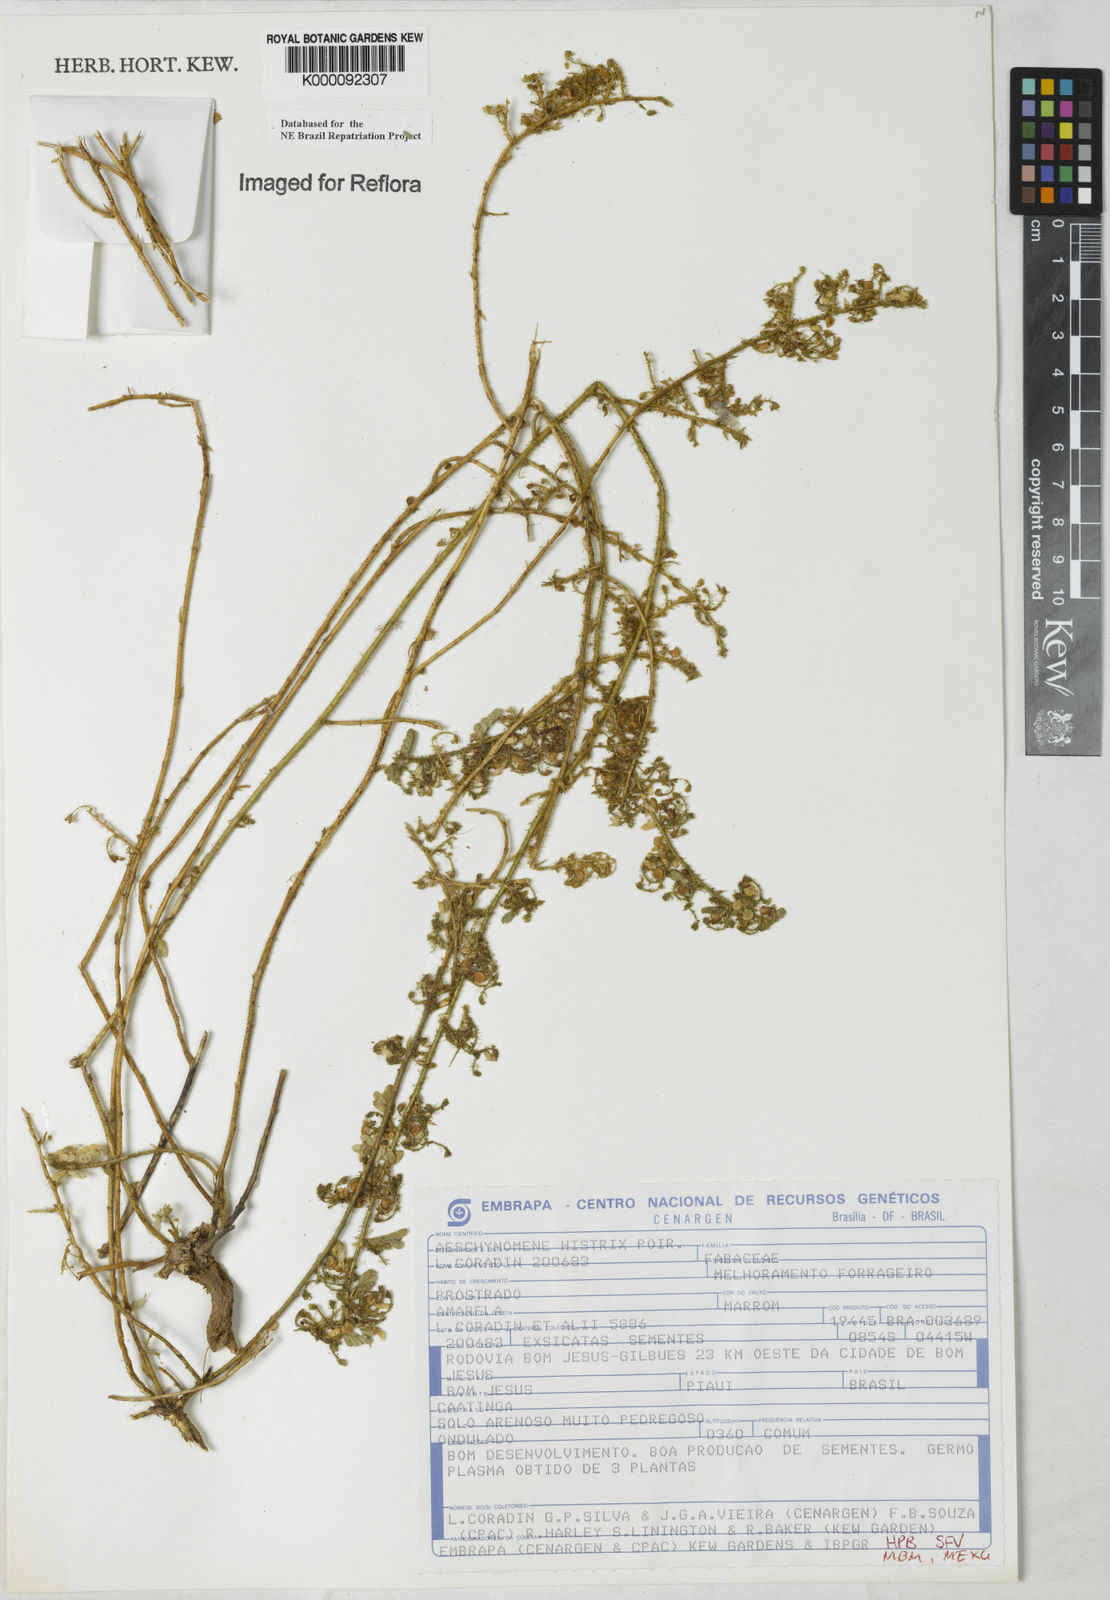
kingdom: Plantae
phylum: Tracheophyta
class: Magnoliopsida
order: Fabales
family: Fabaceae
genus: Ctenodon
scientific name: Ctenodon histrix
